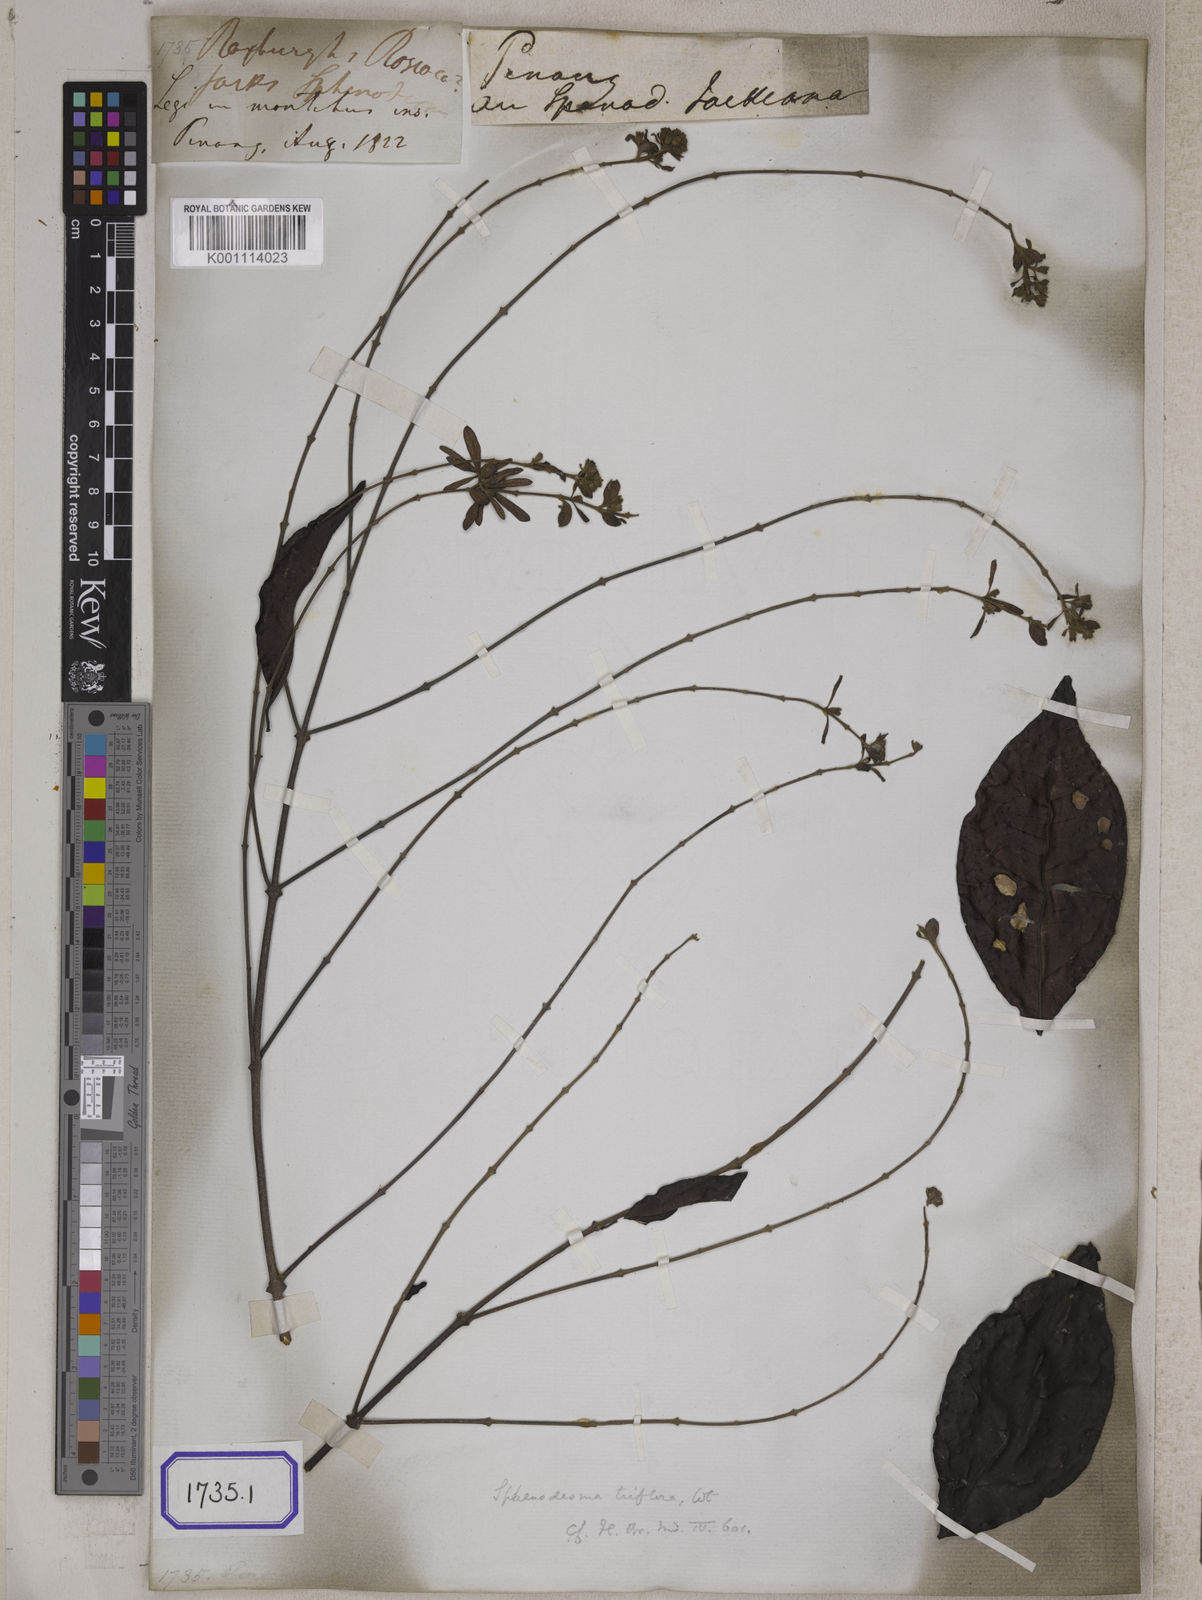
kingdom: Plantae
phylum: Tracheophyta
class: Magnoliopsida
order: Lamiales
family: Lamiaceae
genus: Sphenodesme
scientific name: Sphenodesme pentandra
